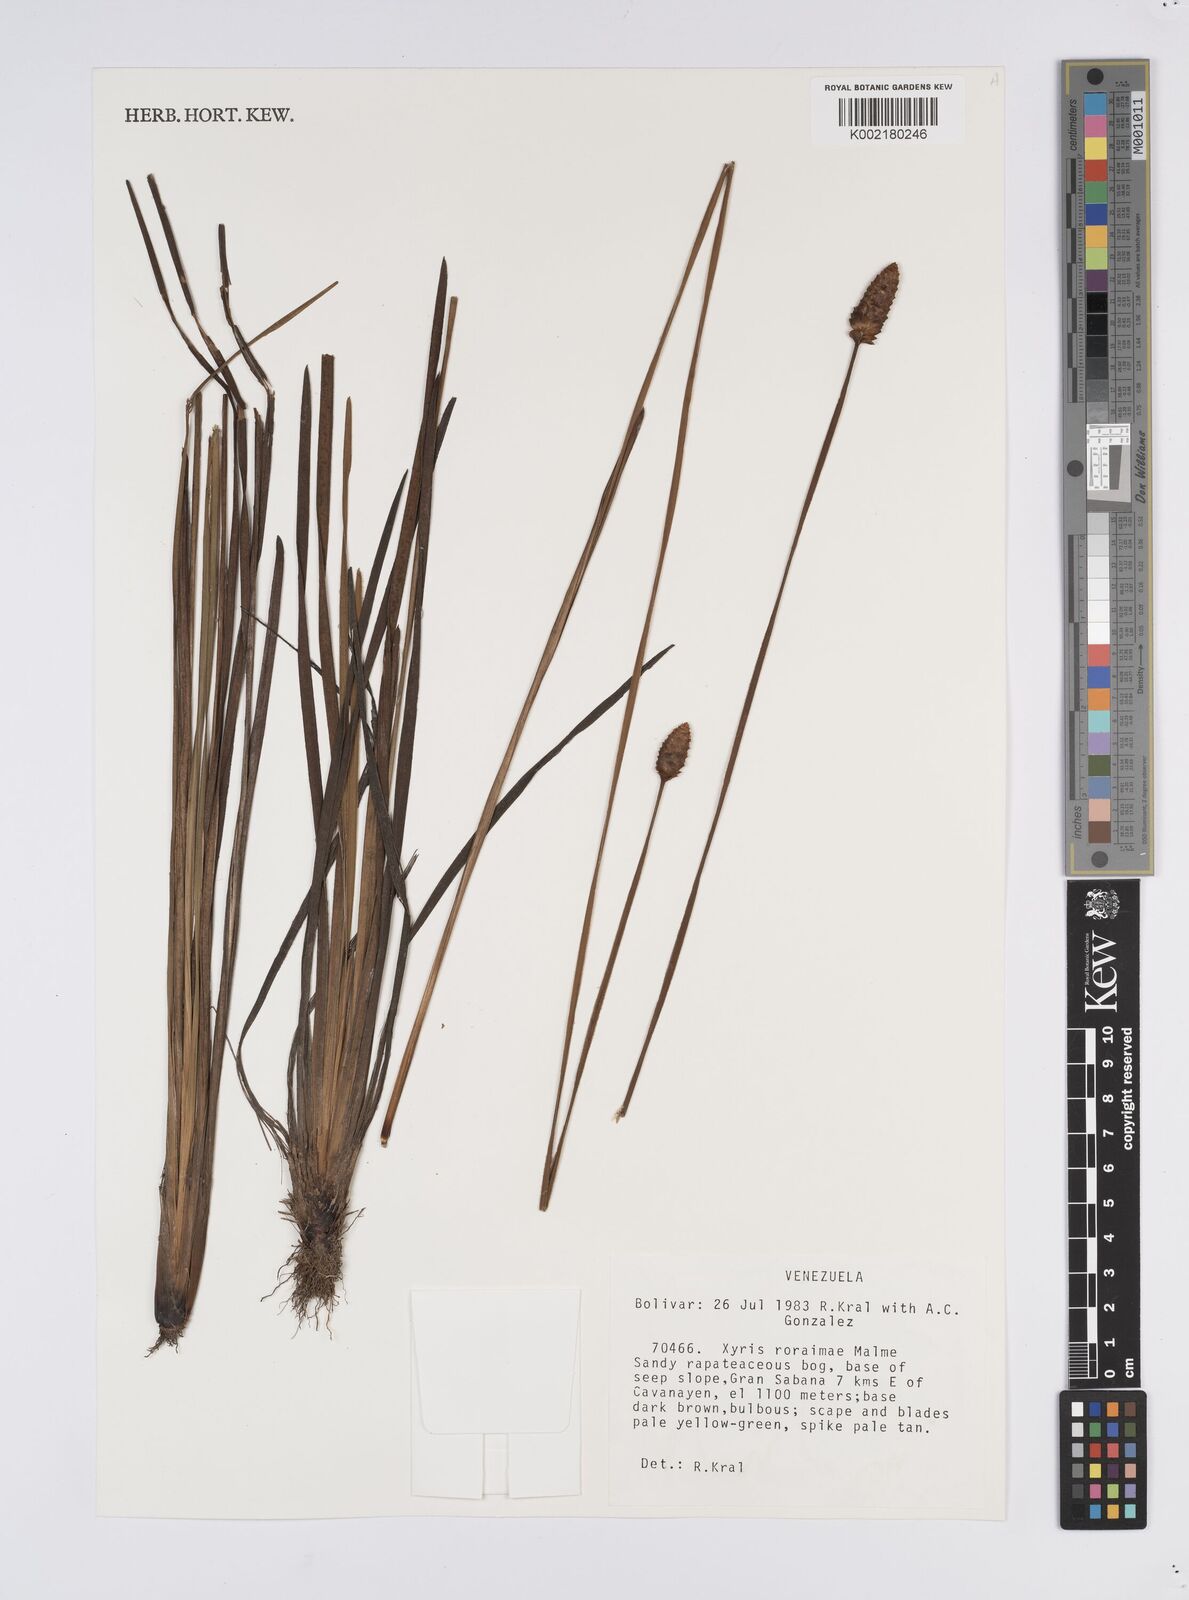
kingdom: Plantae
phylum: Tracheophyta
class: Liliopsida
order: Poales
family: Xyridaceae
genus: Xyris
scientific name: Xyris roraimae
